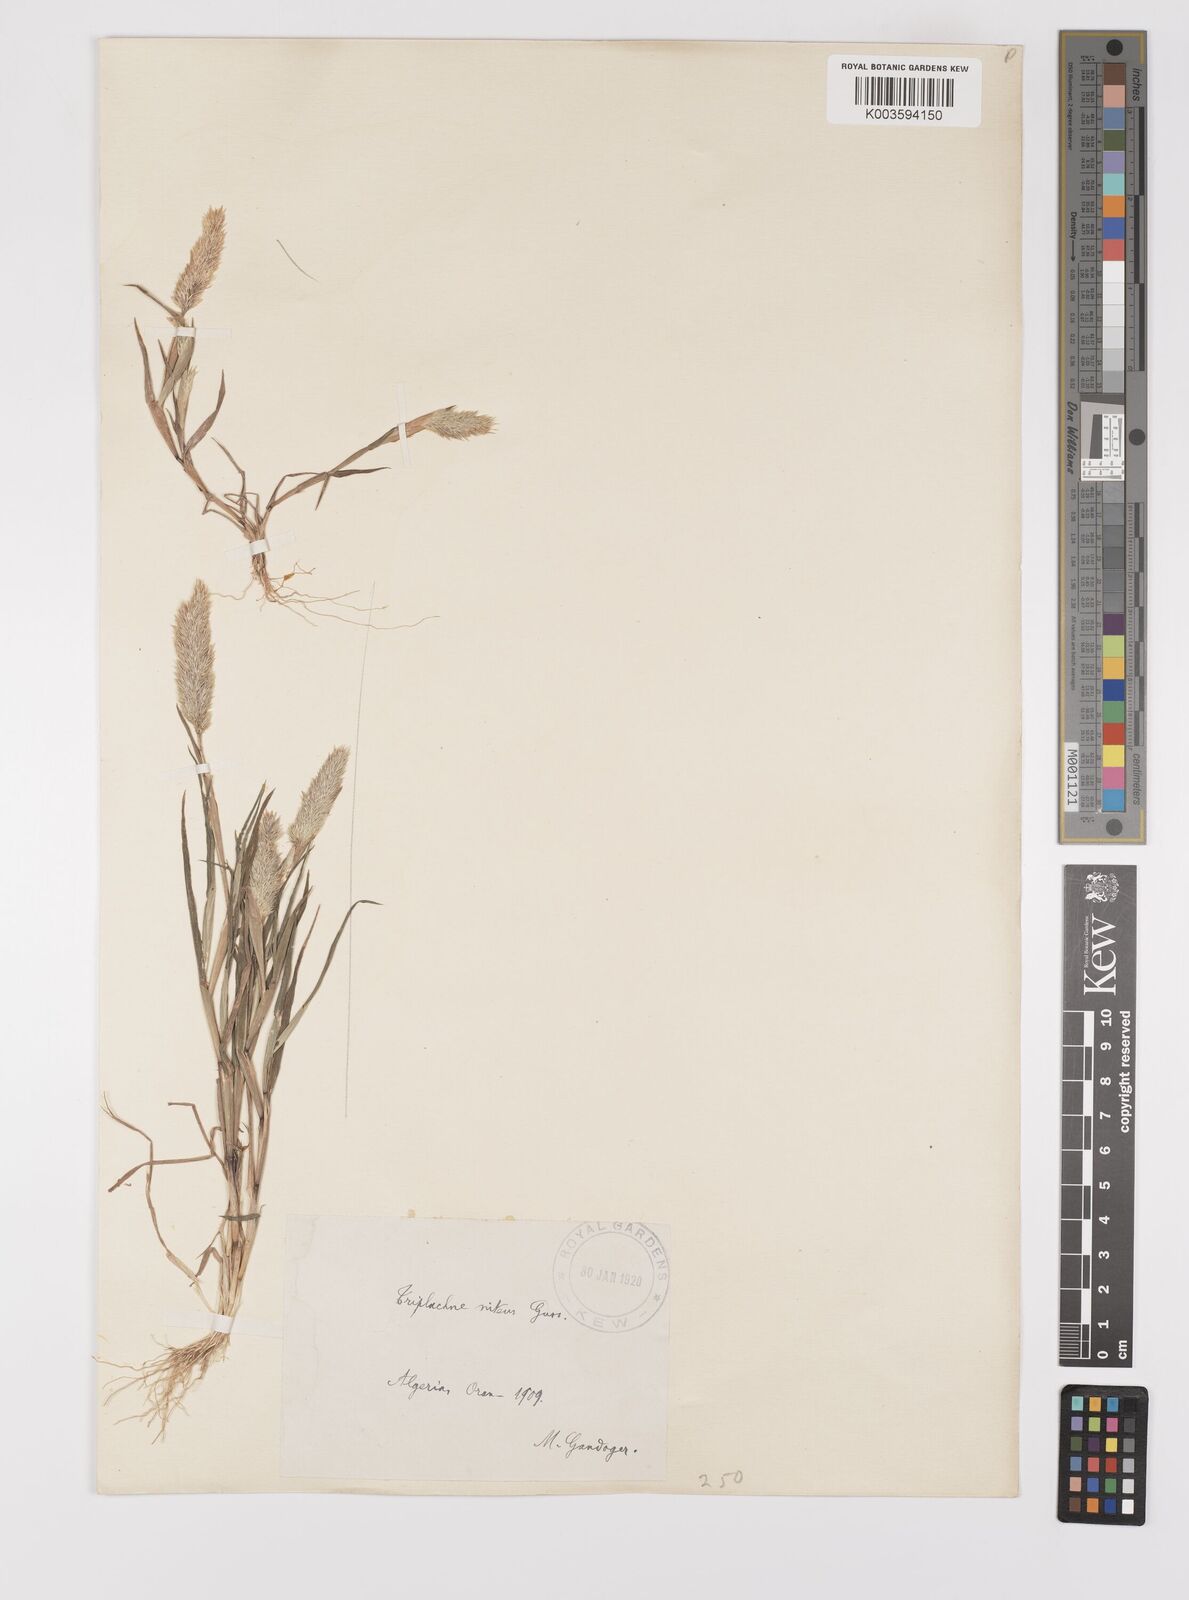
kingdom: Plantae
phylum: Tracheophyta
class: Liliopsida
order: Poales
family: Poaceae
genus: Triplachne
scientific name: Triplachne nitens
